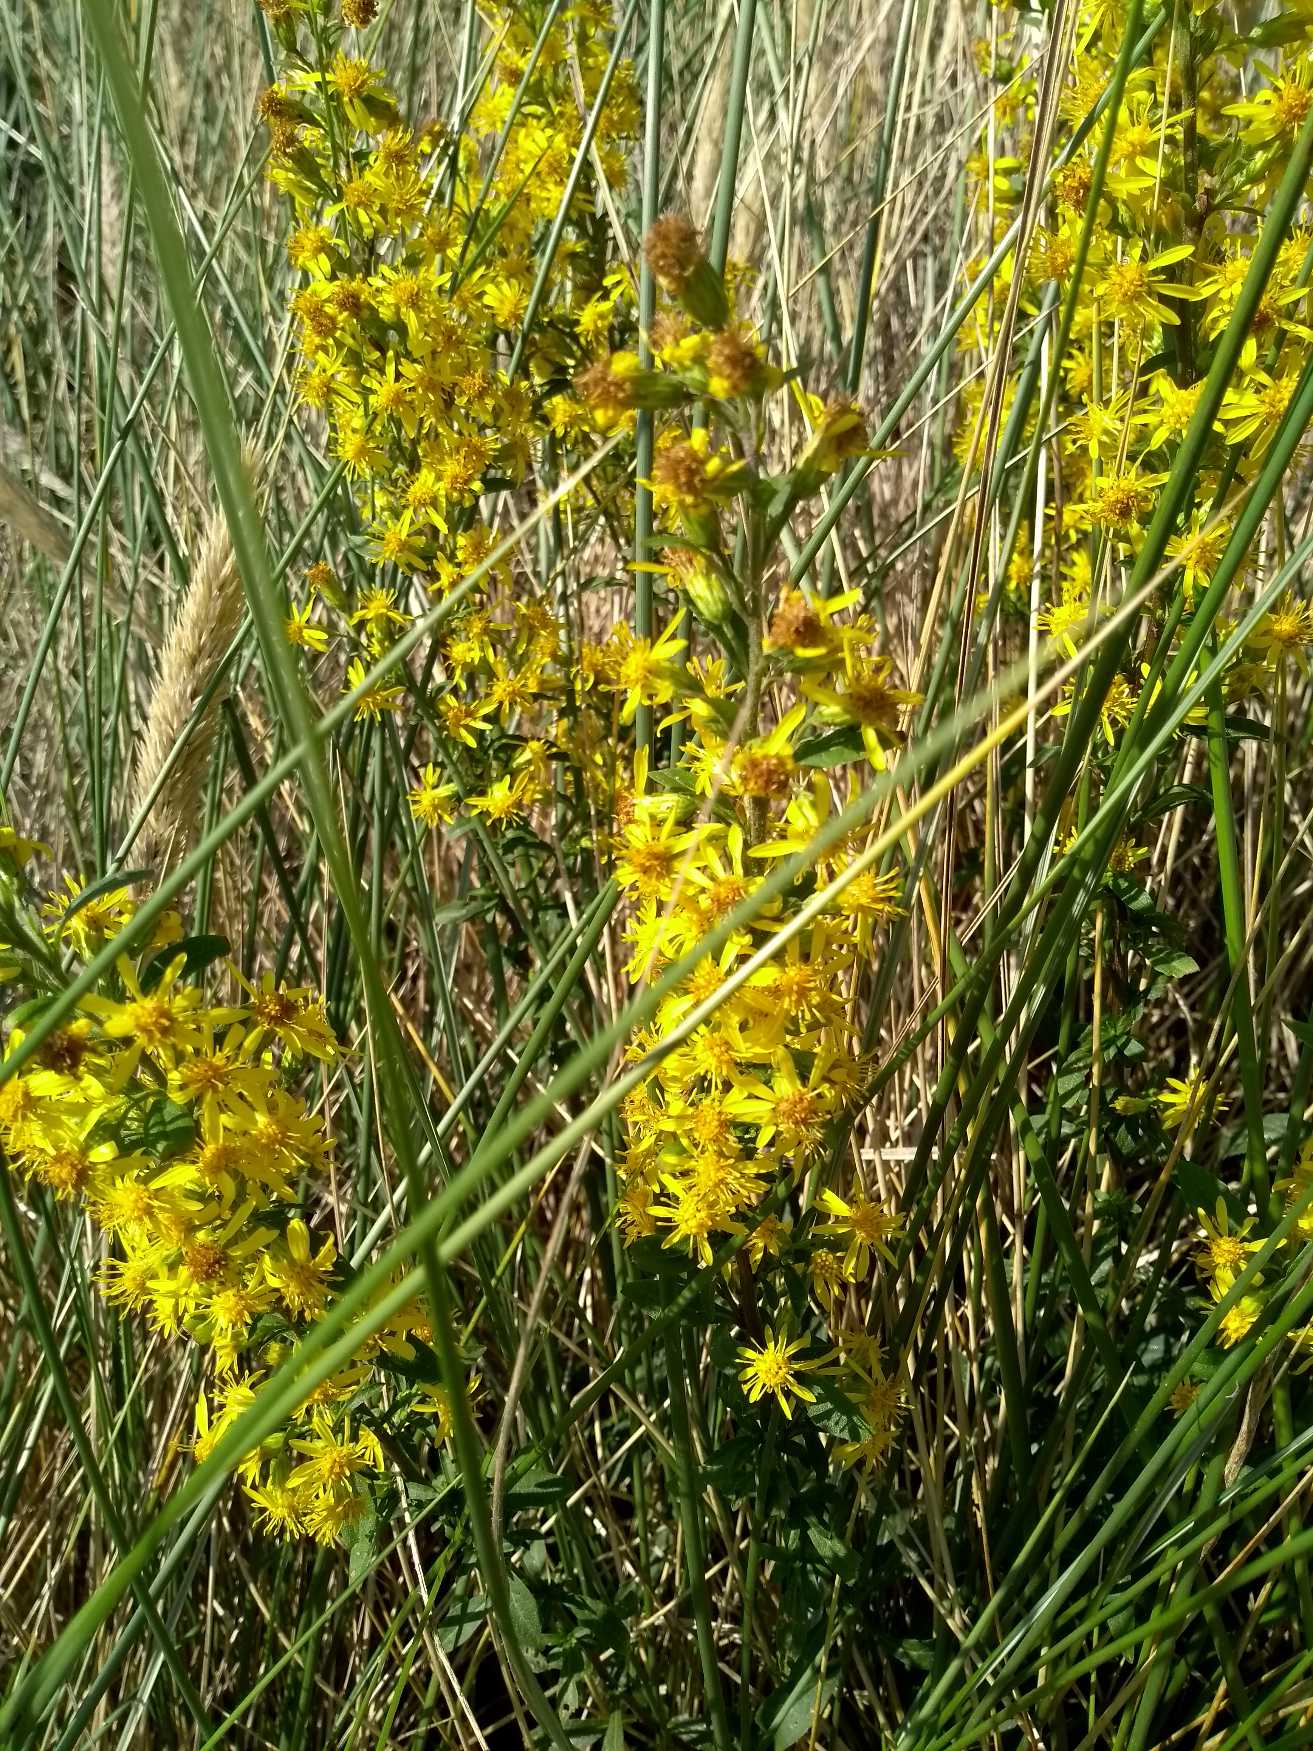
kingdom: Plantae
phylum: Tracheophyta
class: Magnoliopsida
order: Asterales
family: Asteraceae
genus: Solidago
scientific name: Solidago virgaurea
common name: Almindelig gyldenris
